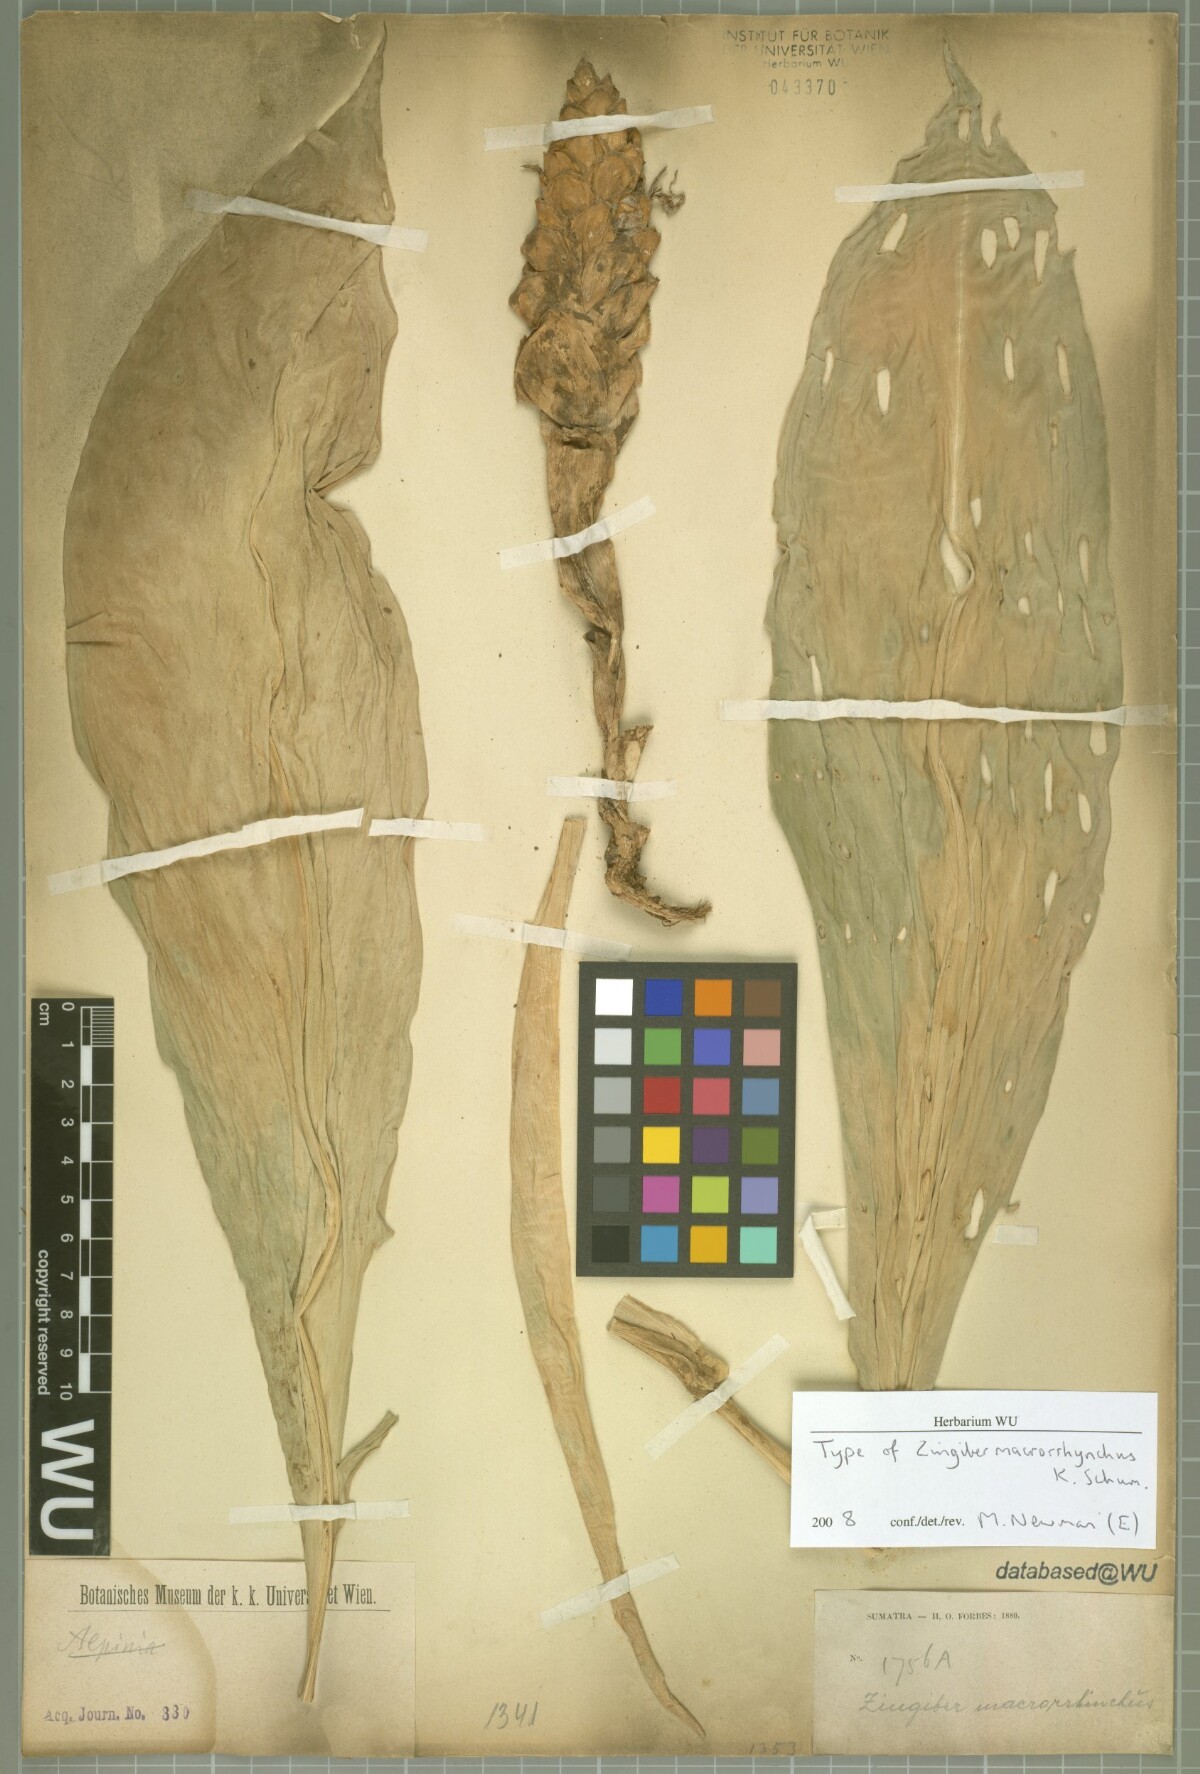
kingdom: Plantae
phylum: Tracheophyta
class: Liliopsida
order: Zingiberales
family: Zingiberaceae
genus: Zingiber
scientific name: Zingiber macrorrhynchus
